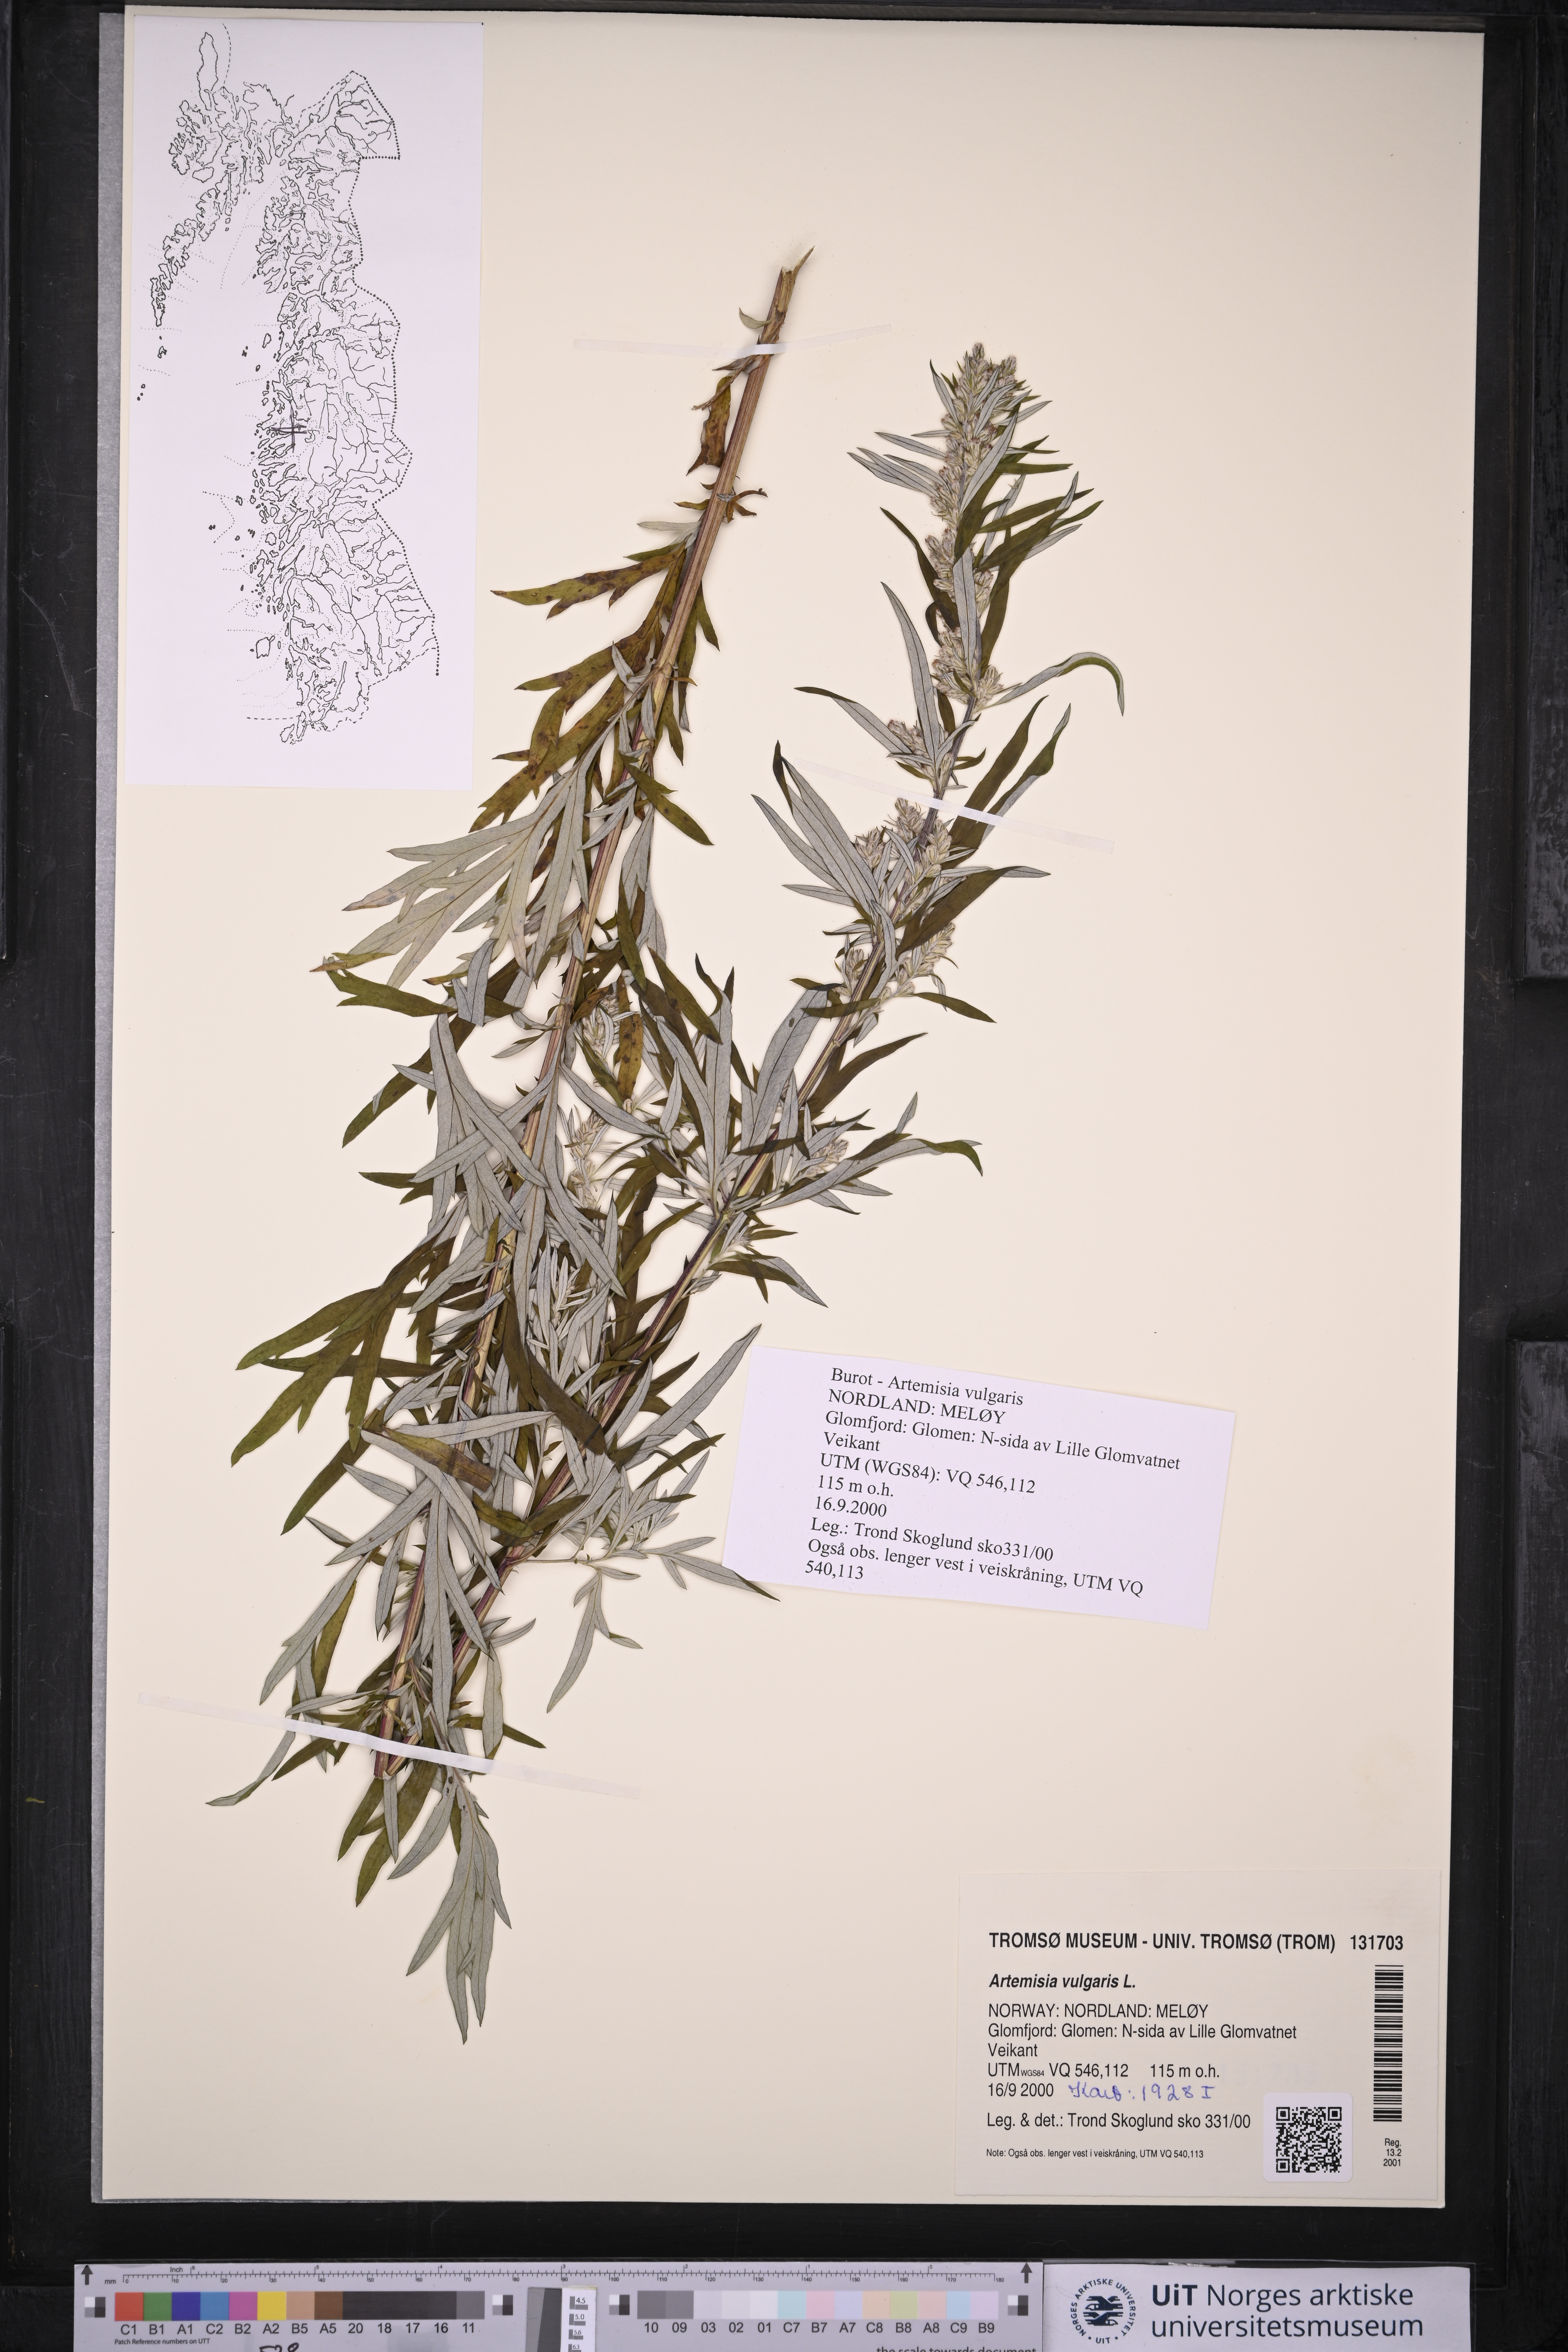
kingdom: Plantae
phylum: Tracheophyta
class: Magnoliopsida
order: Asterales
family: Asteraceae
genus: Artemisia
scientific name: Artemisia vulgaris
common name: Mugwort
